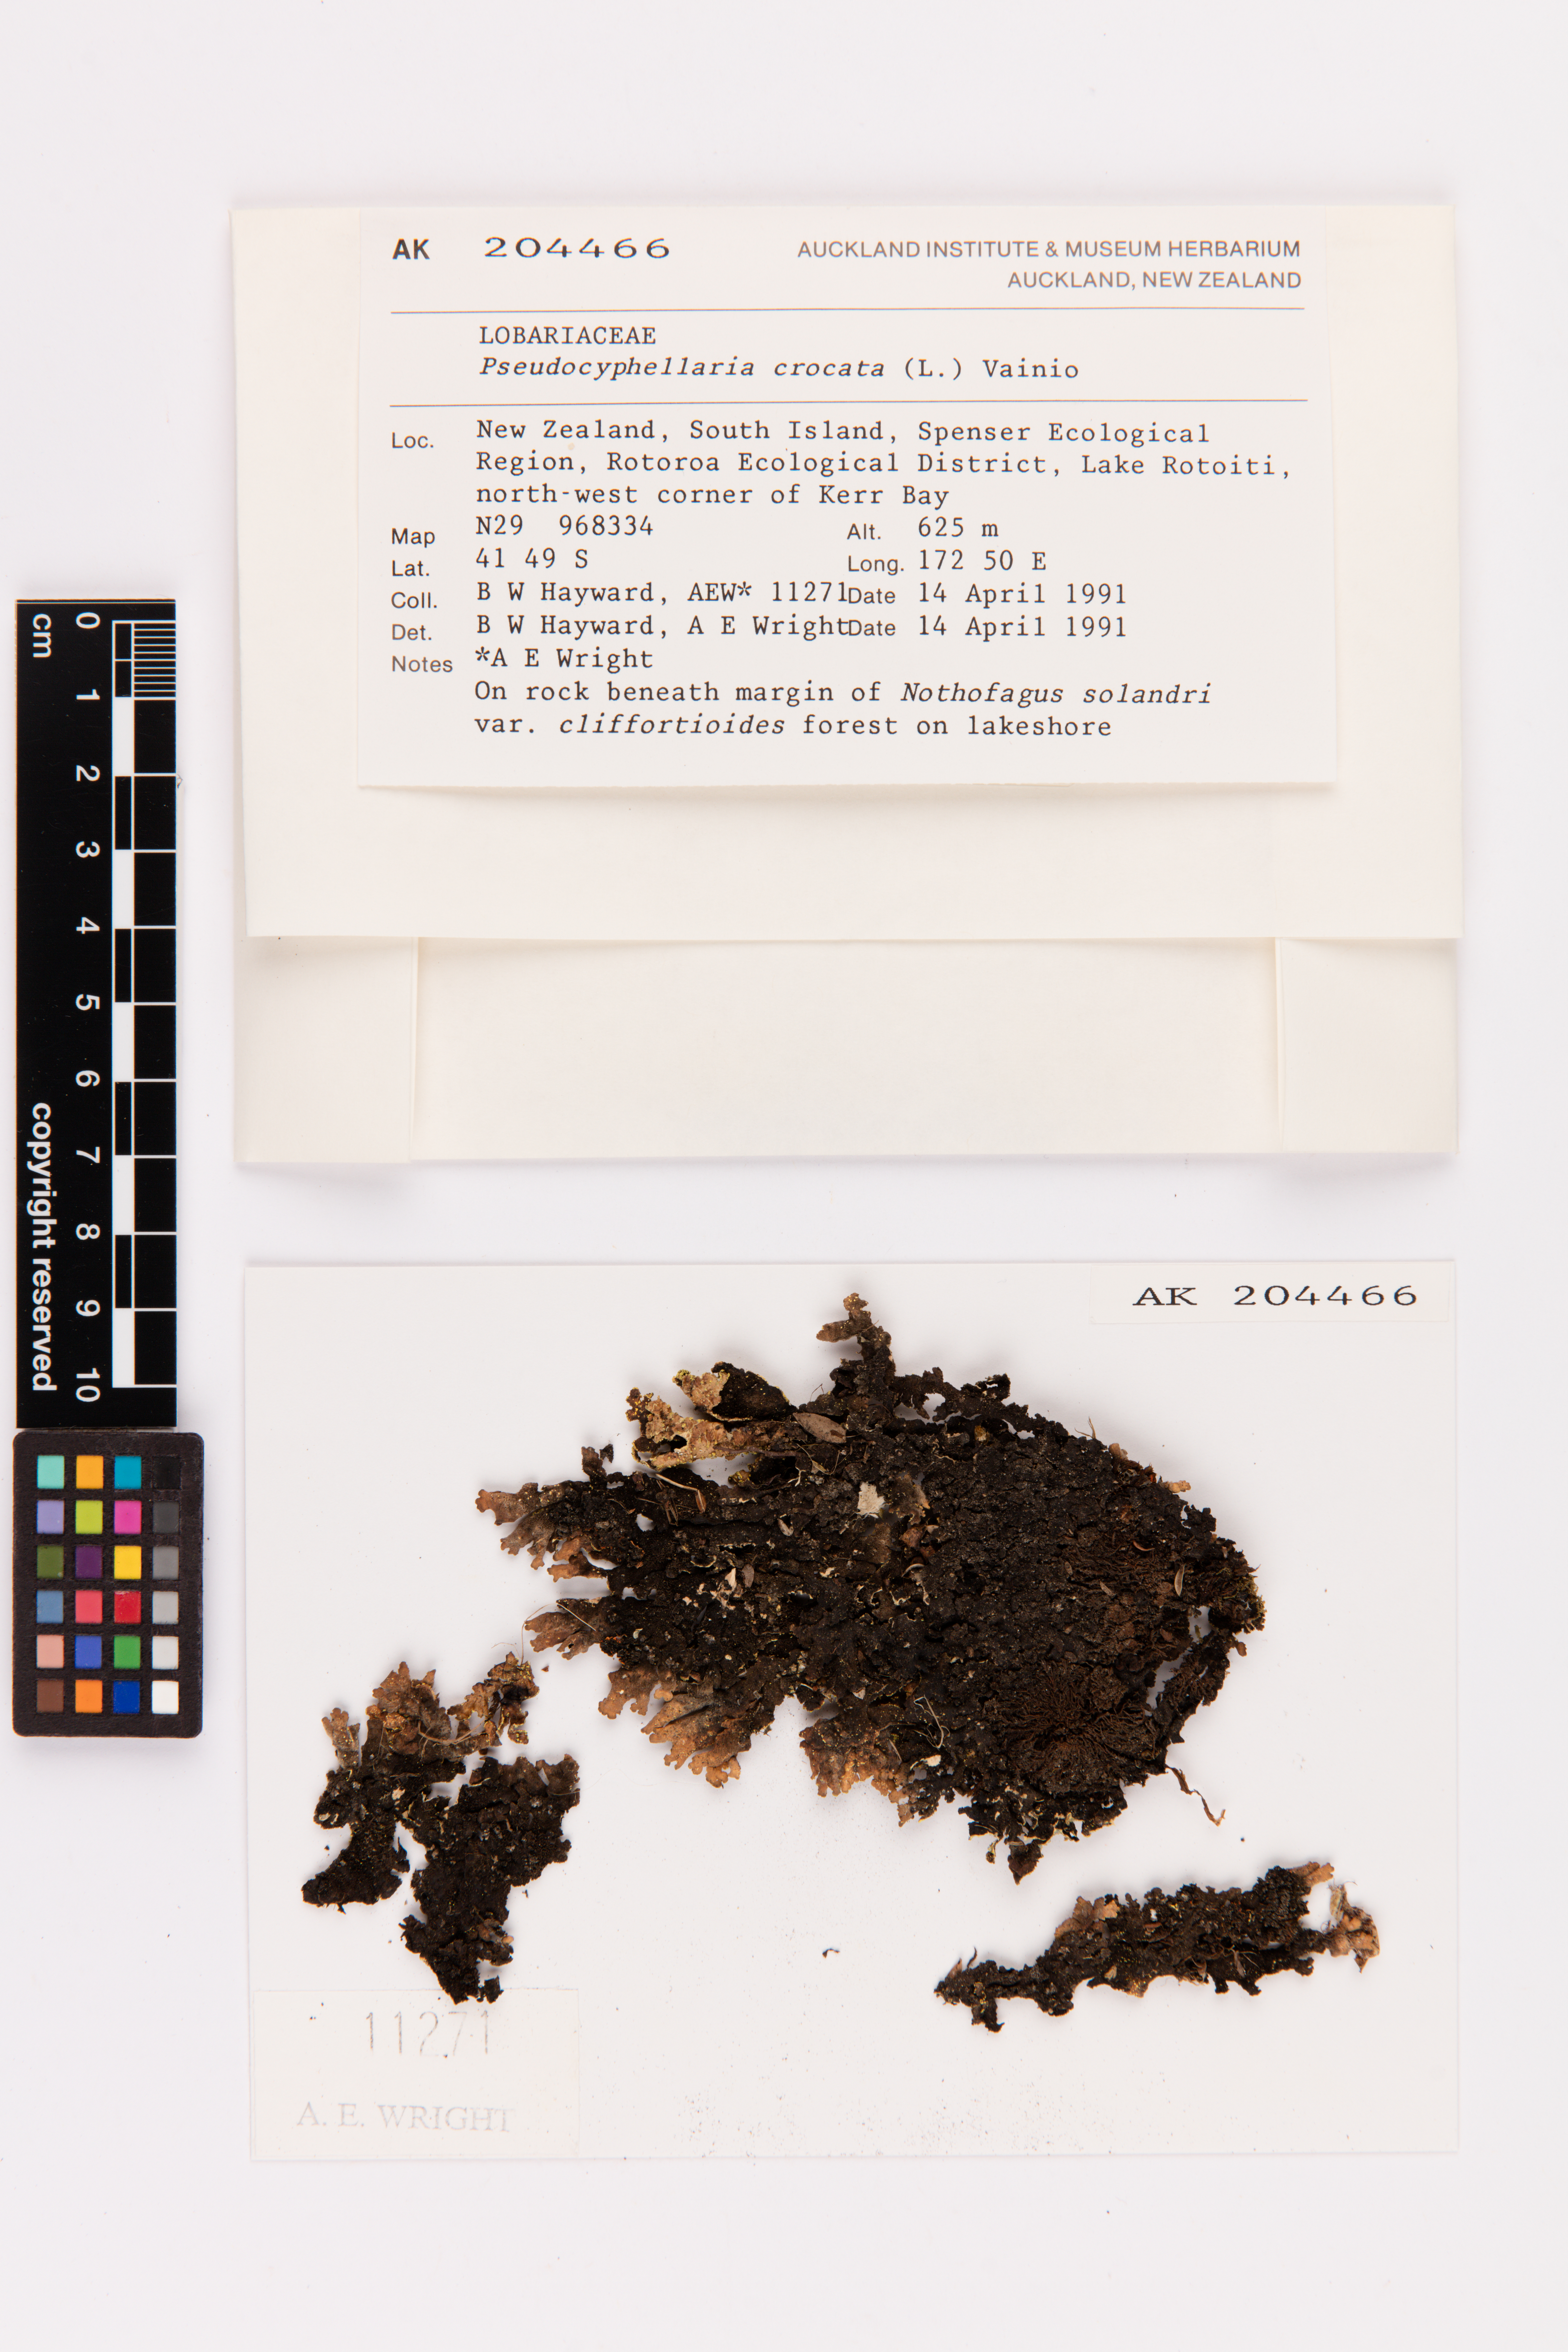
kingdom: Fungi
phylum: Ascomycota
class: Lecanoromycetes
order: Peltigerales
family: Lobariaceae
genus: Pseudocyphellaria
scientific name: Pseudocyphellaria crocata
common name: Golden specklebelly
